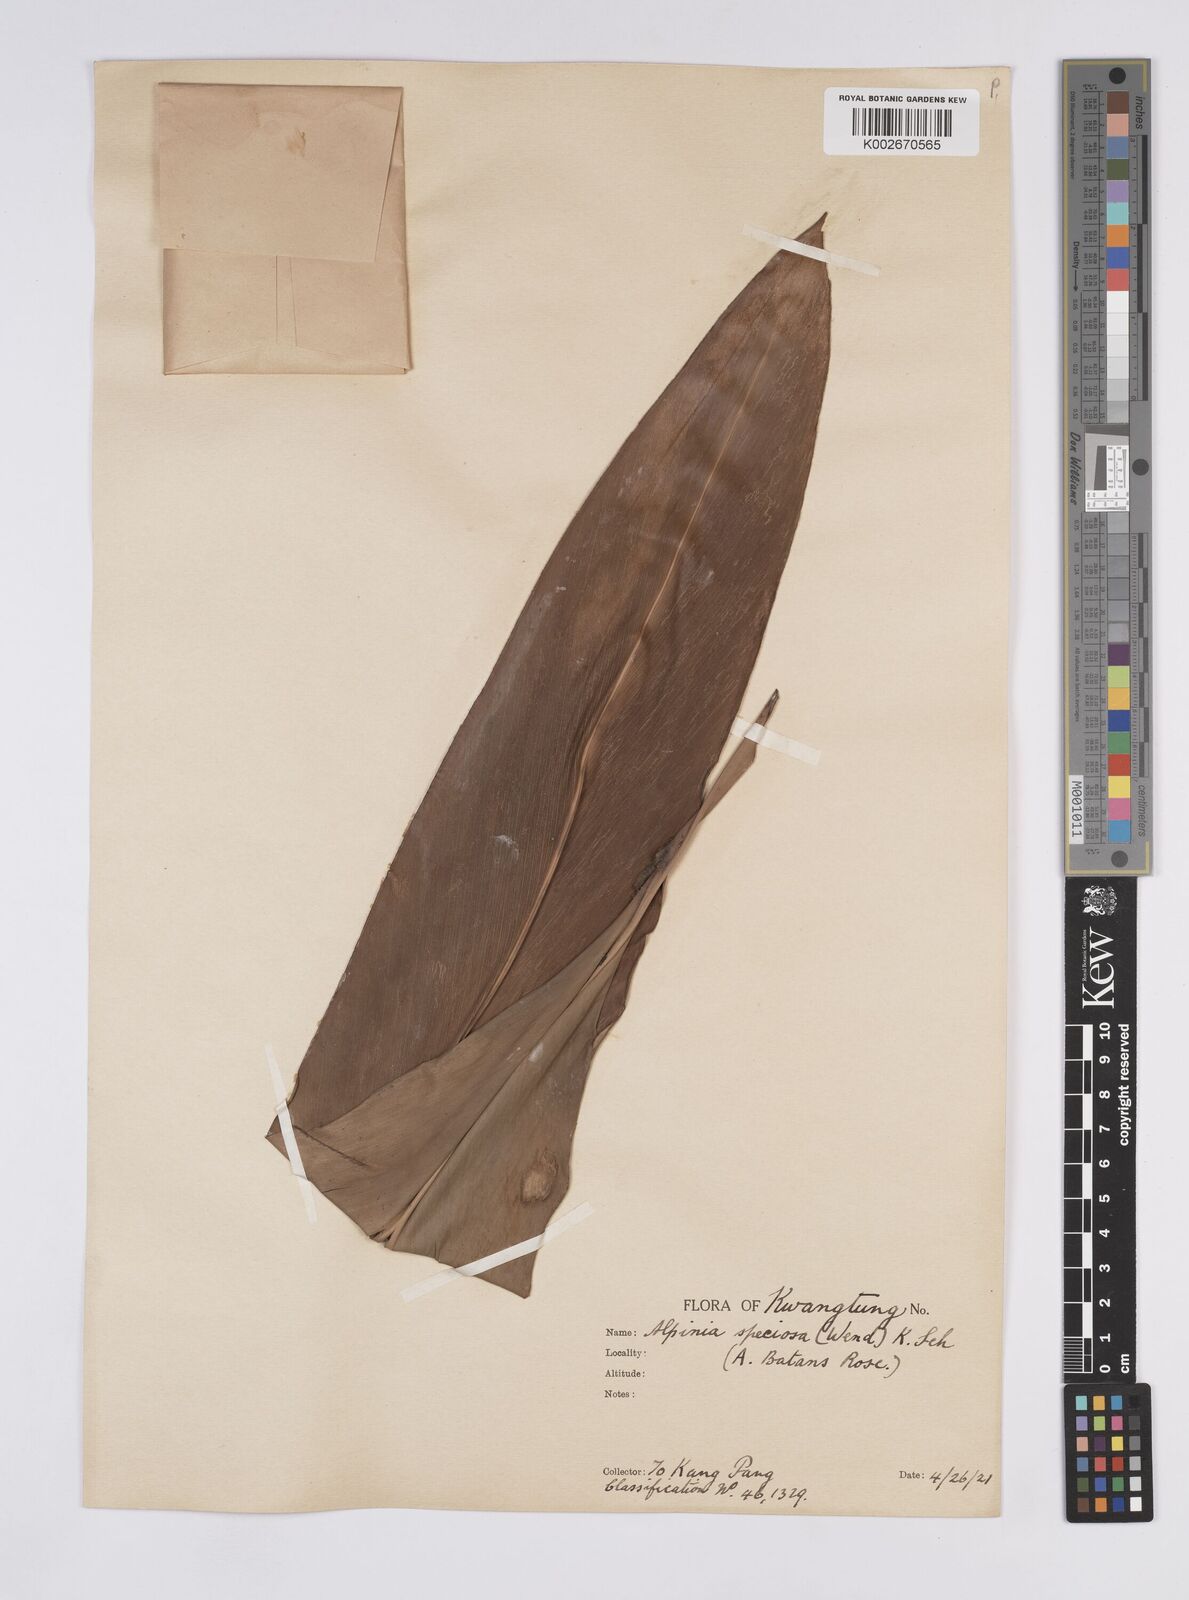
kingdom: Plantae
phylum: Tracheophyta
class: Liliopsida
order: Zingiberales
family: Zingiberaceae
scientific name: Zingiberaceae
